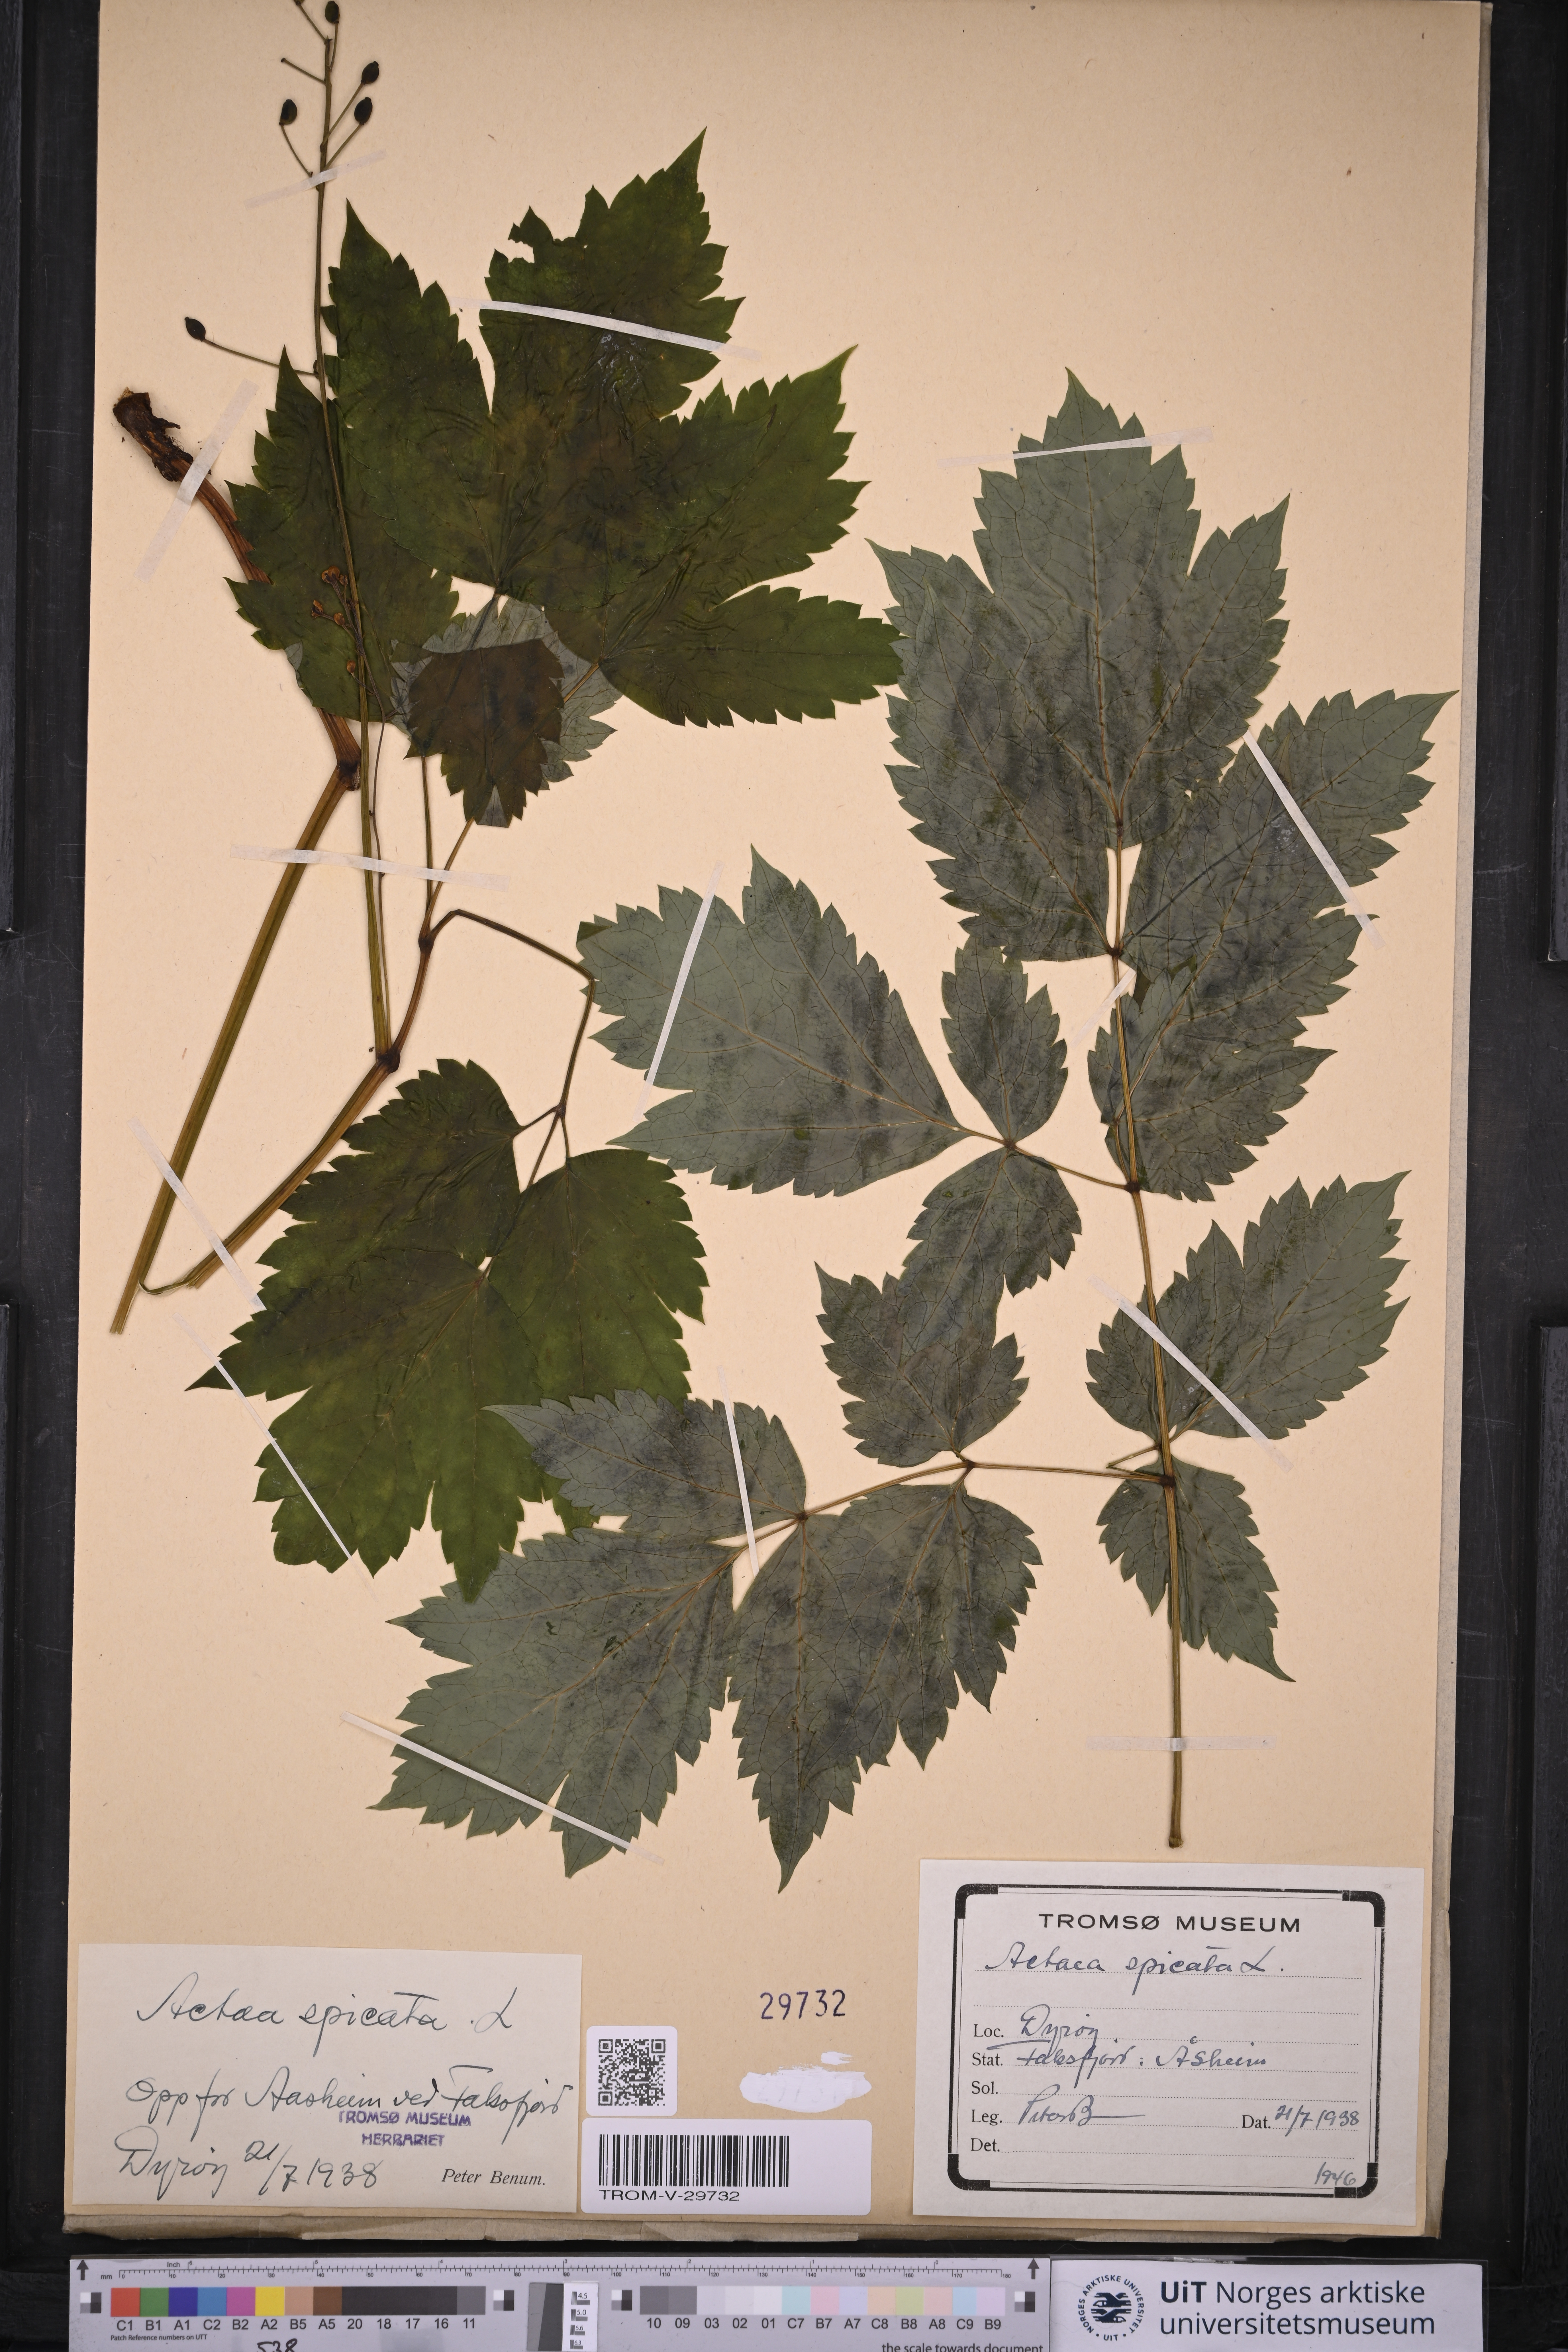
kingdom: Plantae
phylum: Tracheophyta
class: Magnoliopsida
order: Ranunculales
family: Ranunculaceae
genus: Actaea
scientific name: Actaea spicata
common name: Baneberry
